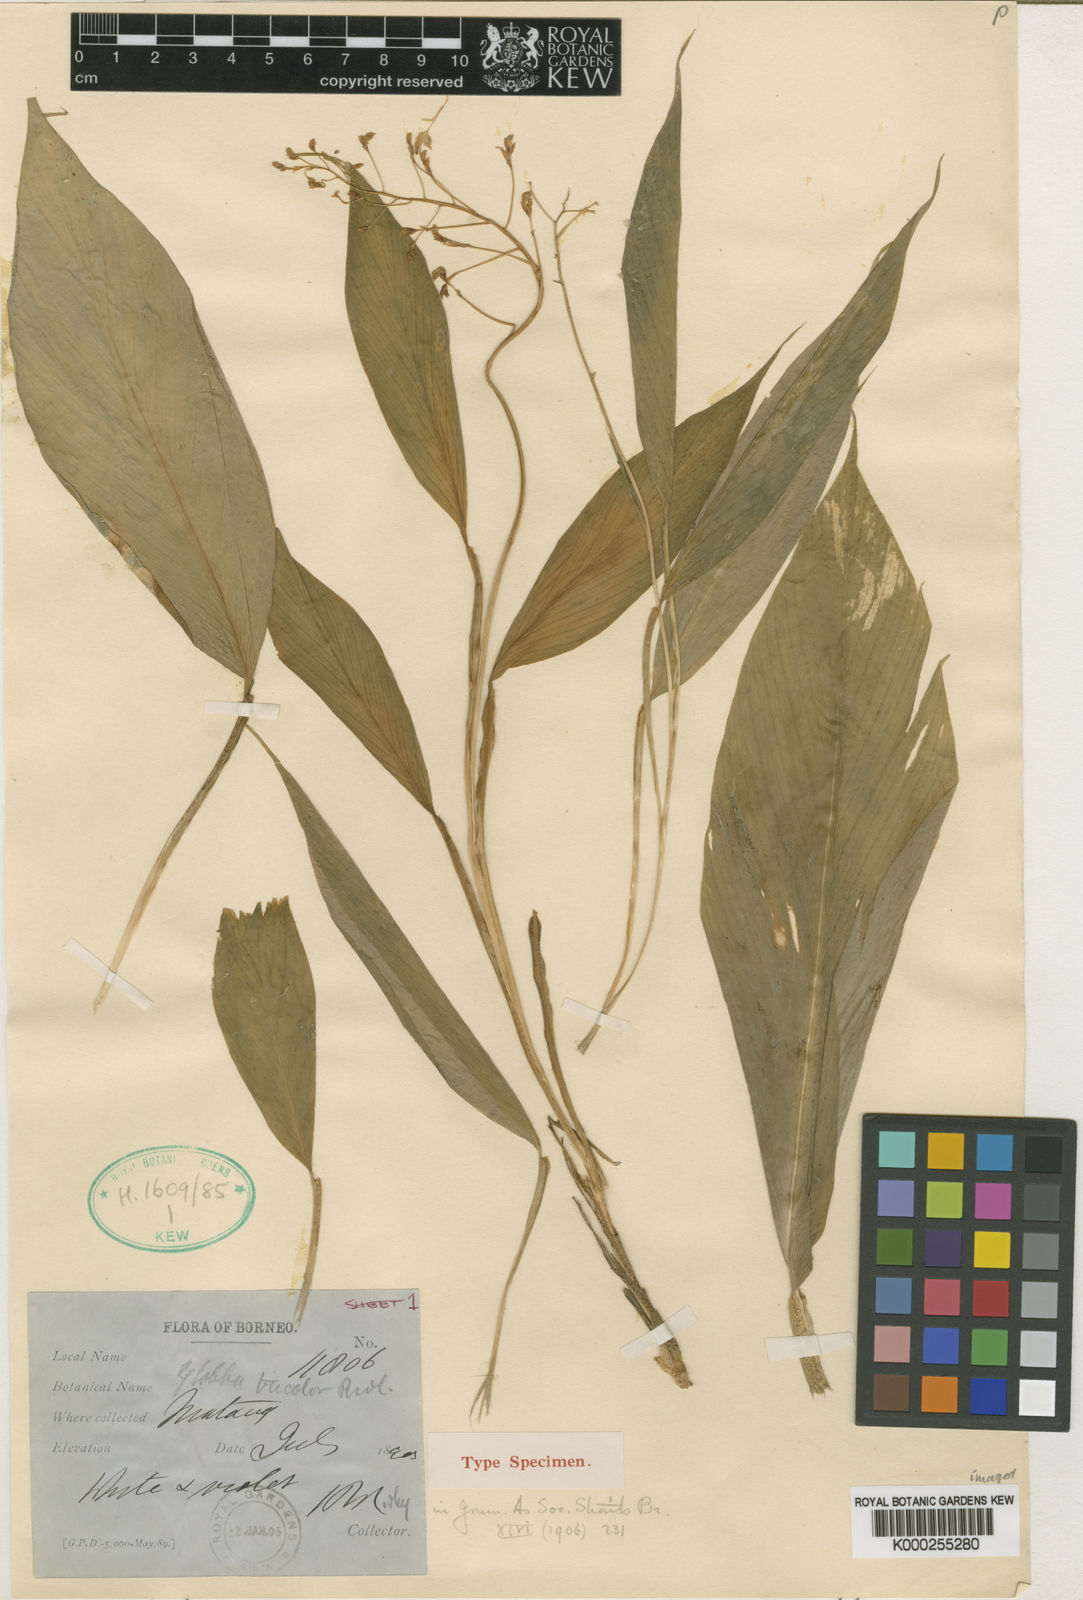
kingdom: Plantae
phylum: Tracheophyta
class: Liliopsida
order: Zingiberales
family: Zingiberaceae
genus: Globba
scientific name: Globba tricolor
